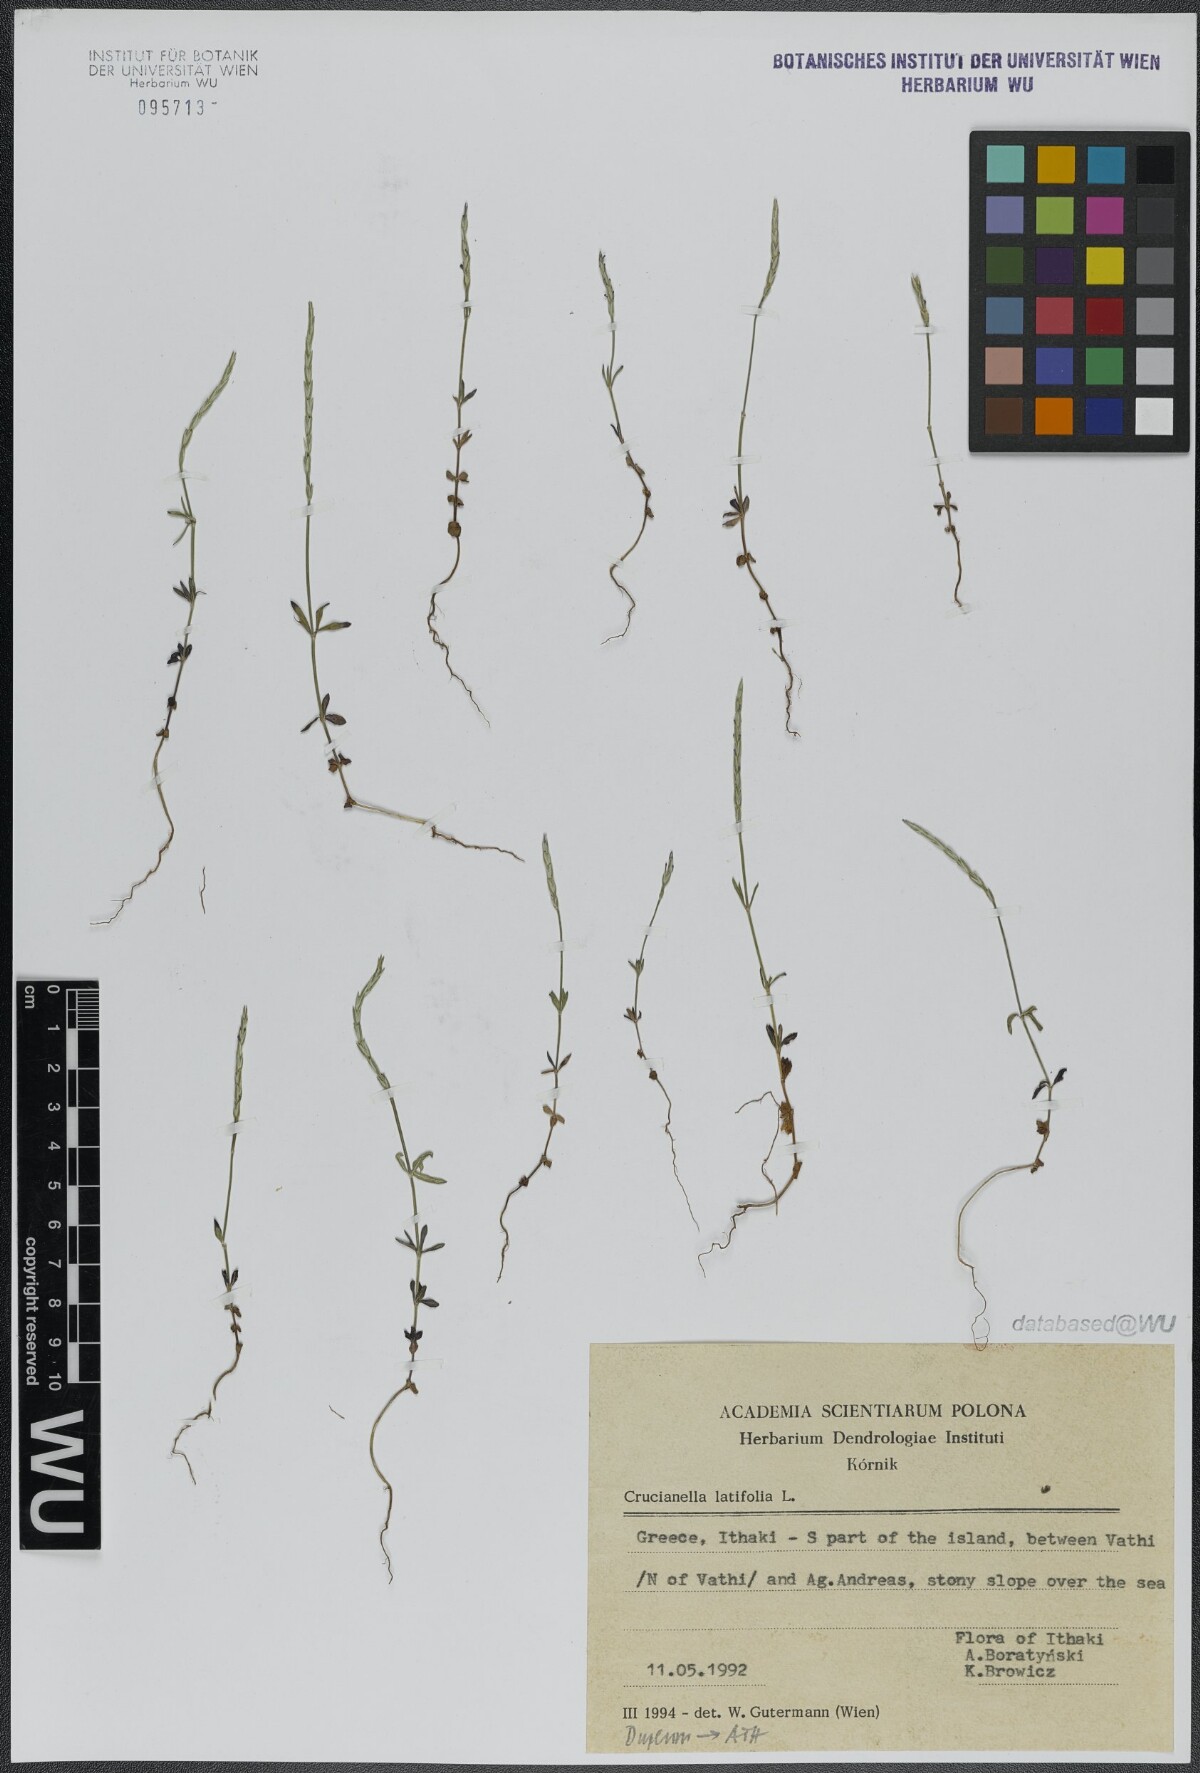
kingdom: Plantae
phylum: Tracheophyta
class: Magnoliopsida
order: Gentianales
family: Rubiaceae
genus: Crucianella
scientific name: Crucianella latifolia
